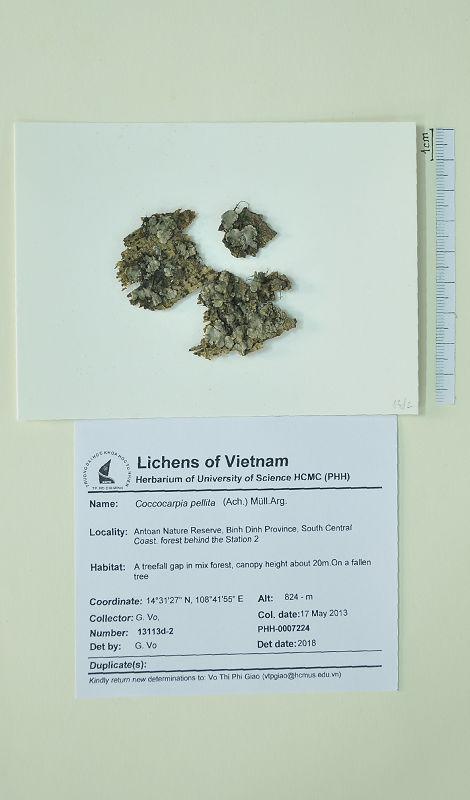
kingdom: Fungi
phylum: Ascomycota
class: Lecanoromycetes
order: Peltigerales
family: Coccocarpiaceae
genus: Coccocarpia
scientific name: Coccocarpia pellita
